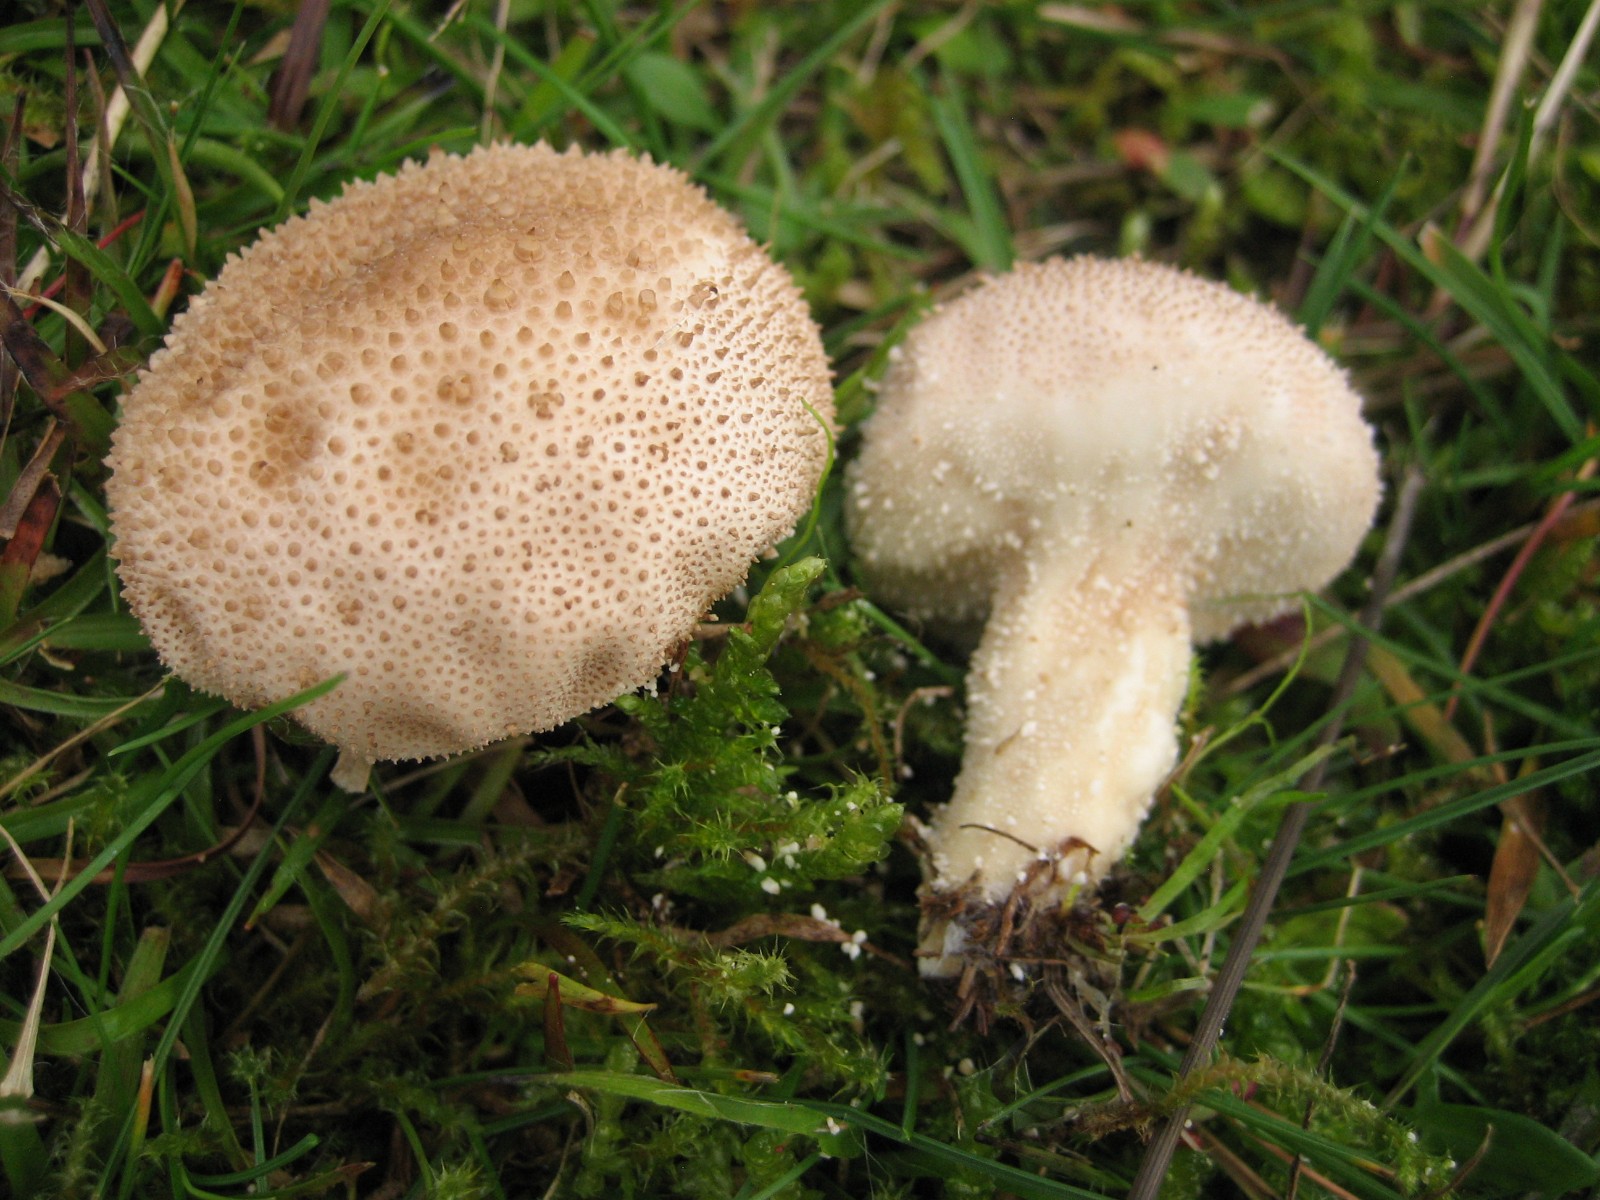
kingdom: Fungi
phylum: Basidiomycota
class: Agaricomycetes
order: Agaricales
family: Lycoperdaceae
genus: Lycoperdon
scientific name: Lycoperdon perlatum
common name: krystal-støvbold
